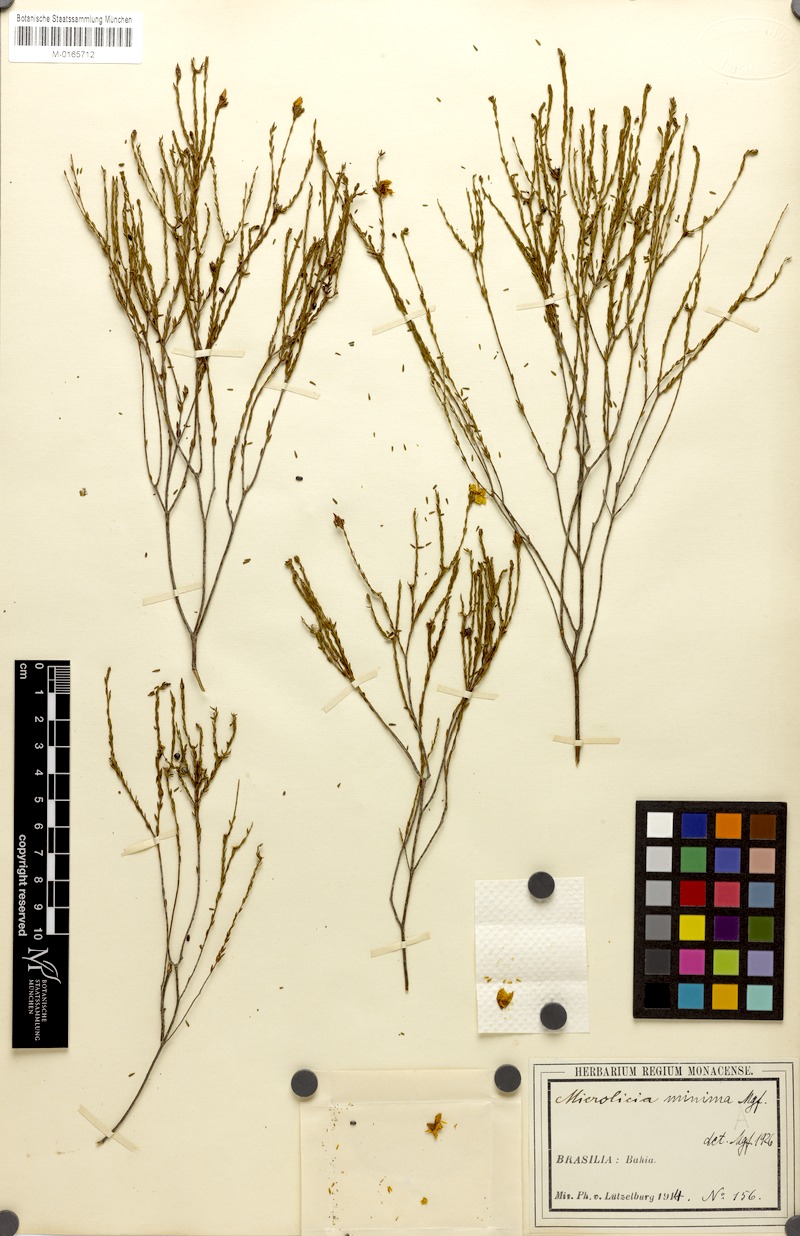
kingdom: Plantae
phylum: Tracheophyta
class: Magnoliopsida
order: Myrtales
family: Melastomataceae
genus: Microlicia
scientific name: Microlicia minima
